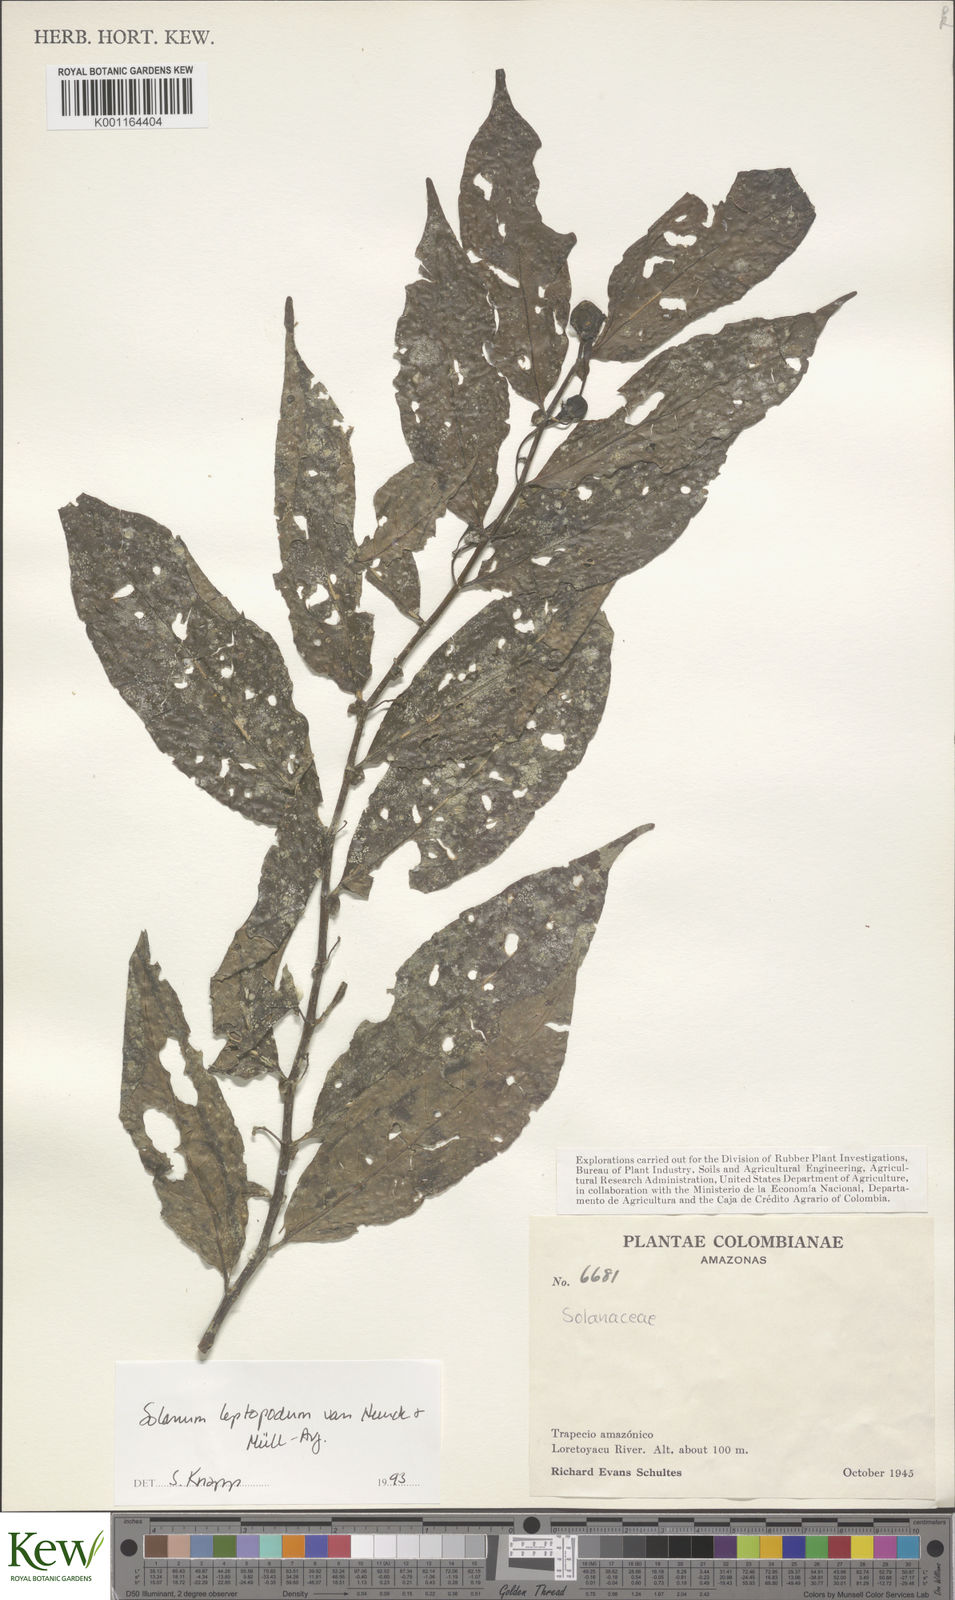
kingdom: Plantae
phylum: Tracheophyta
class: Magnoliopsida
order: Solanales
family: Solanaceae
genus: Solanum
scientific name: Solanum leptopodum
